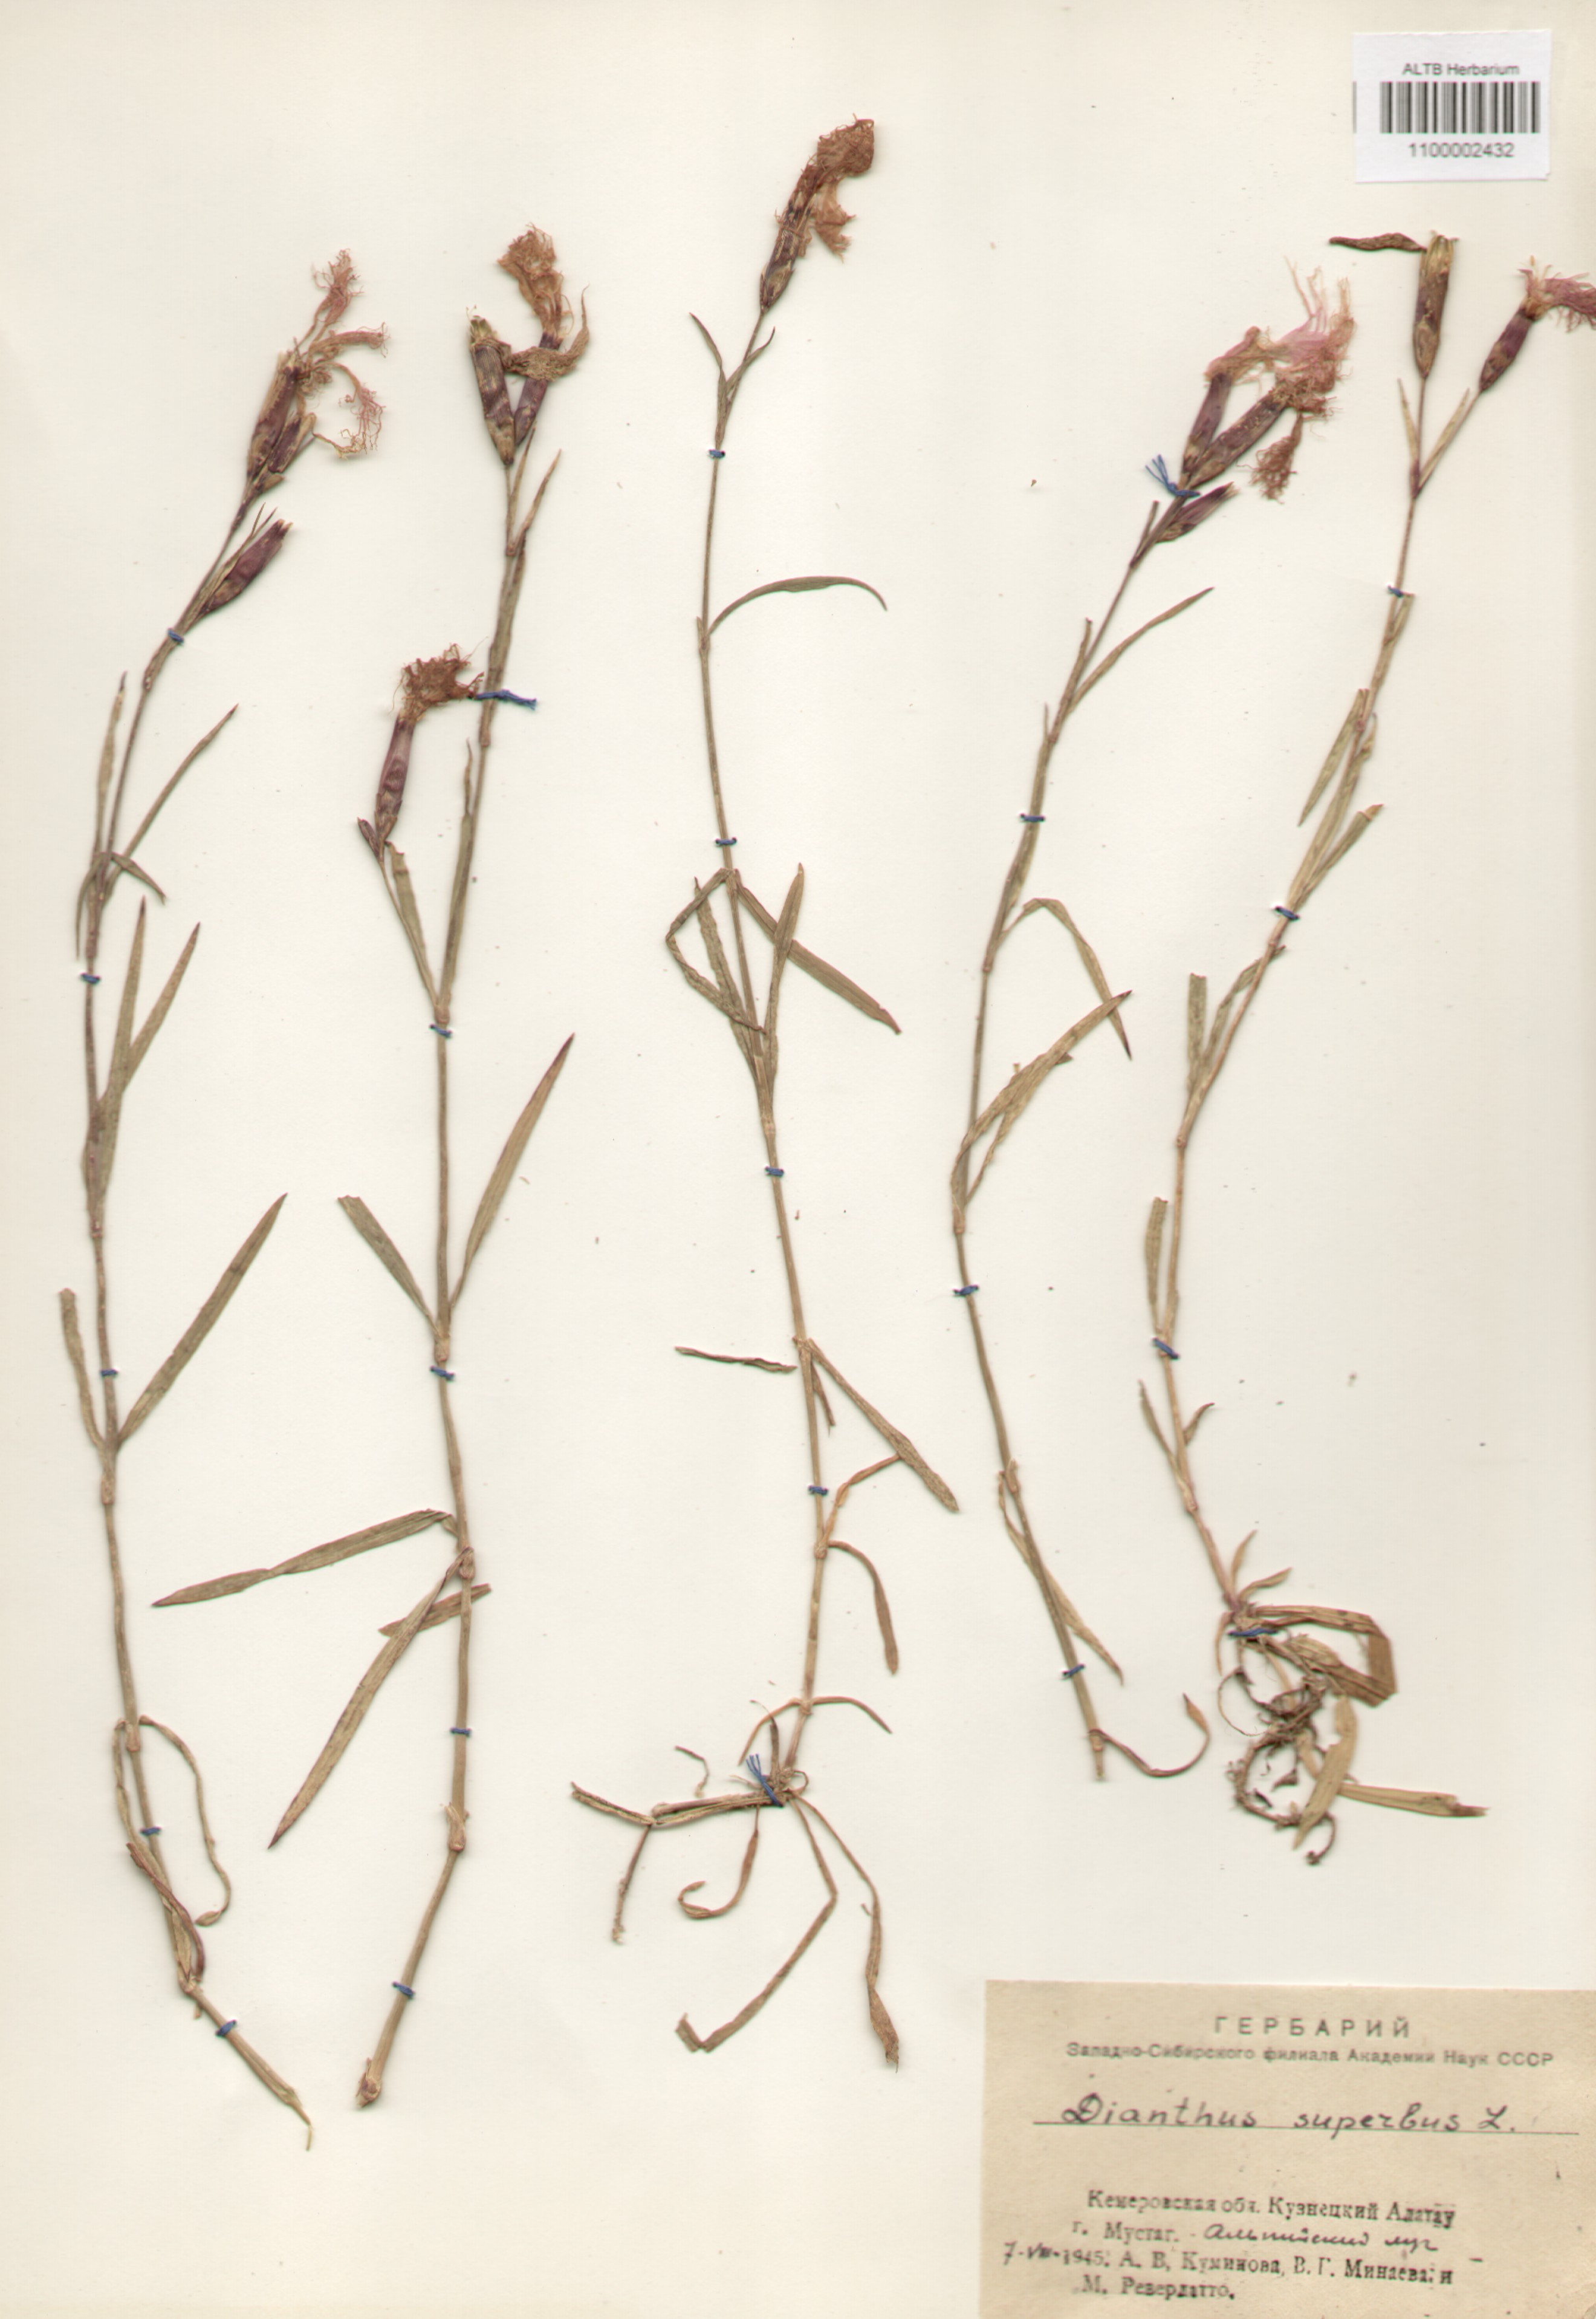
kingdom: Plantae
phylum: Tracheophyta
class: Magnoliopsida
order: Caryophyllales
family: Caryophyllaceae
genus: Dianthus
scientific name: Dianthus superbus
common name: Fringed pink
